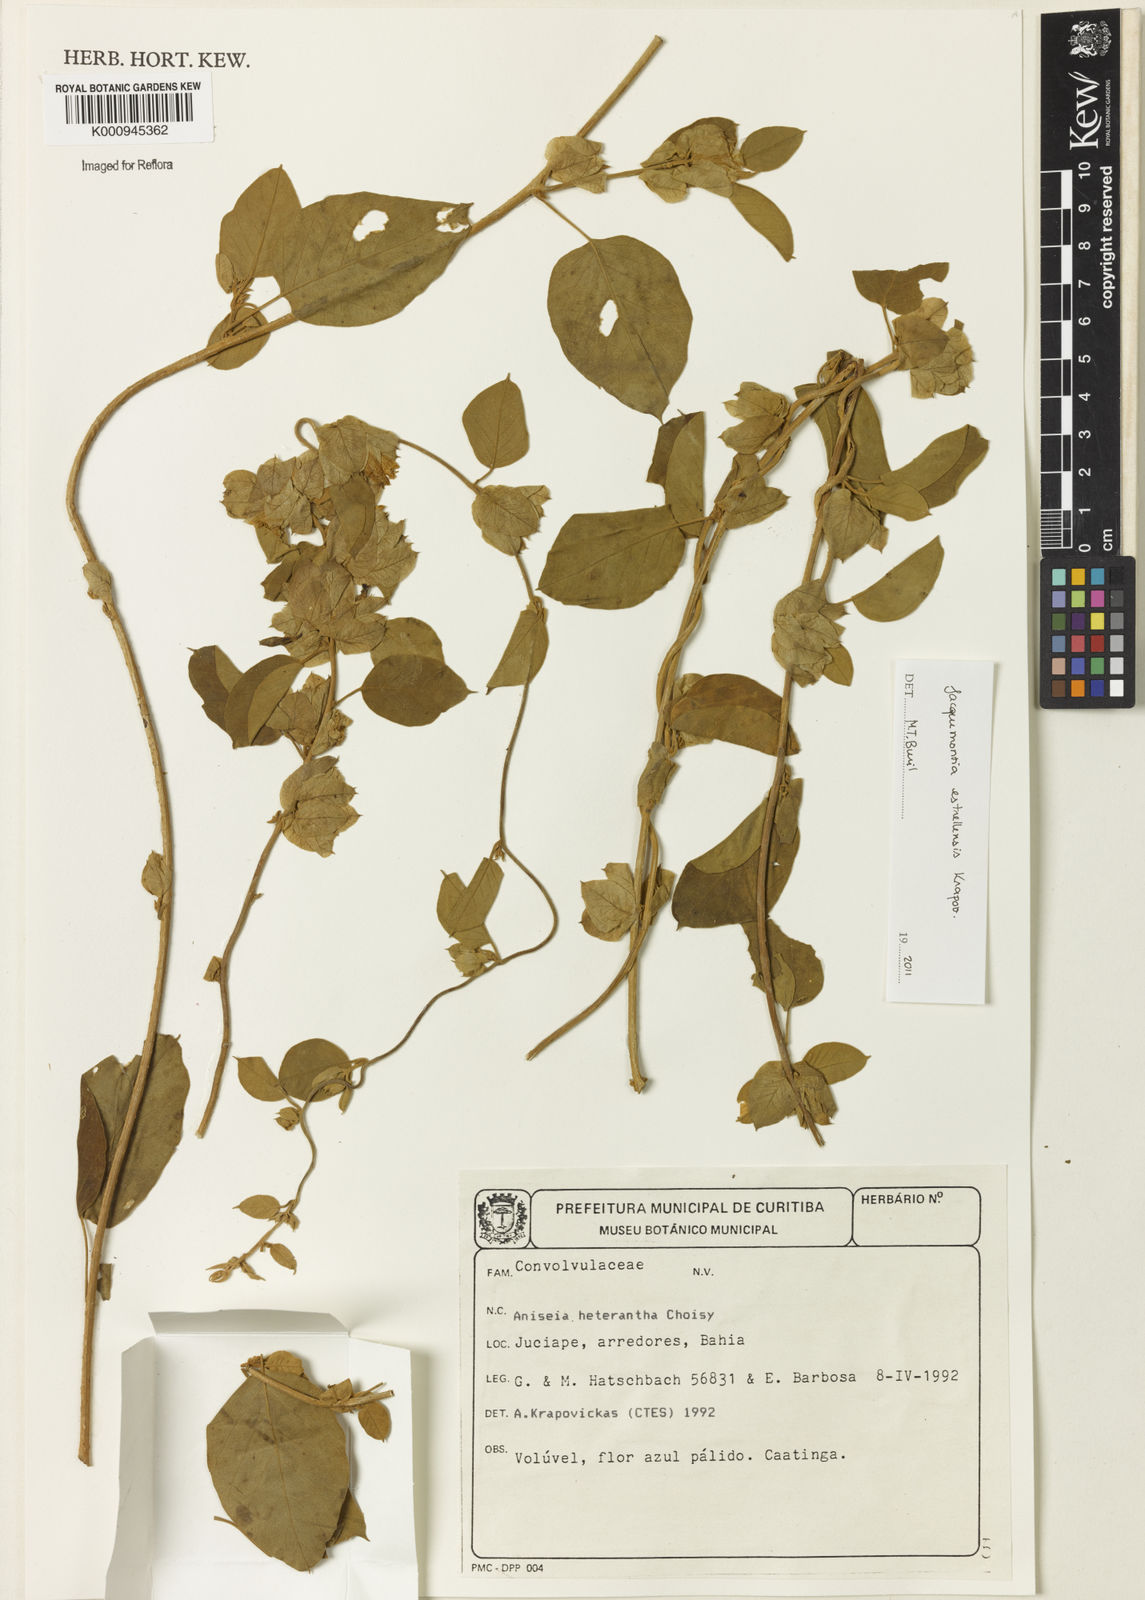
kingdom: Plantae
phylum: Tracheophyta
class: Magnoliopsida
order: Solanales
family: Convolvulaceae
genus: Jacquemontia
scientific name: Jacquemontia
